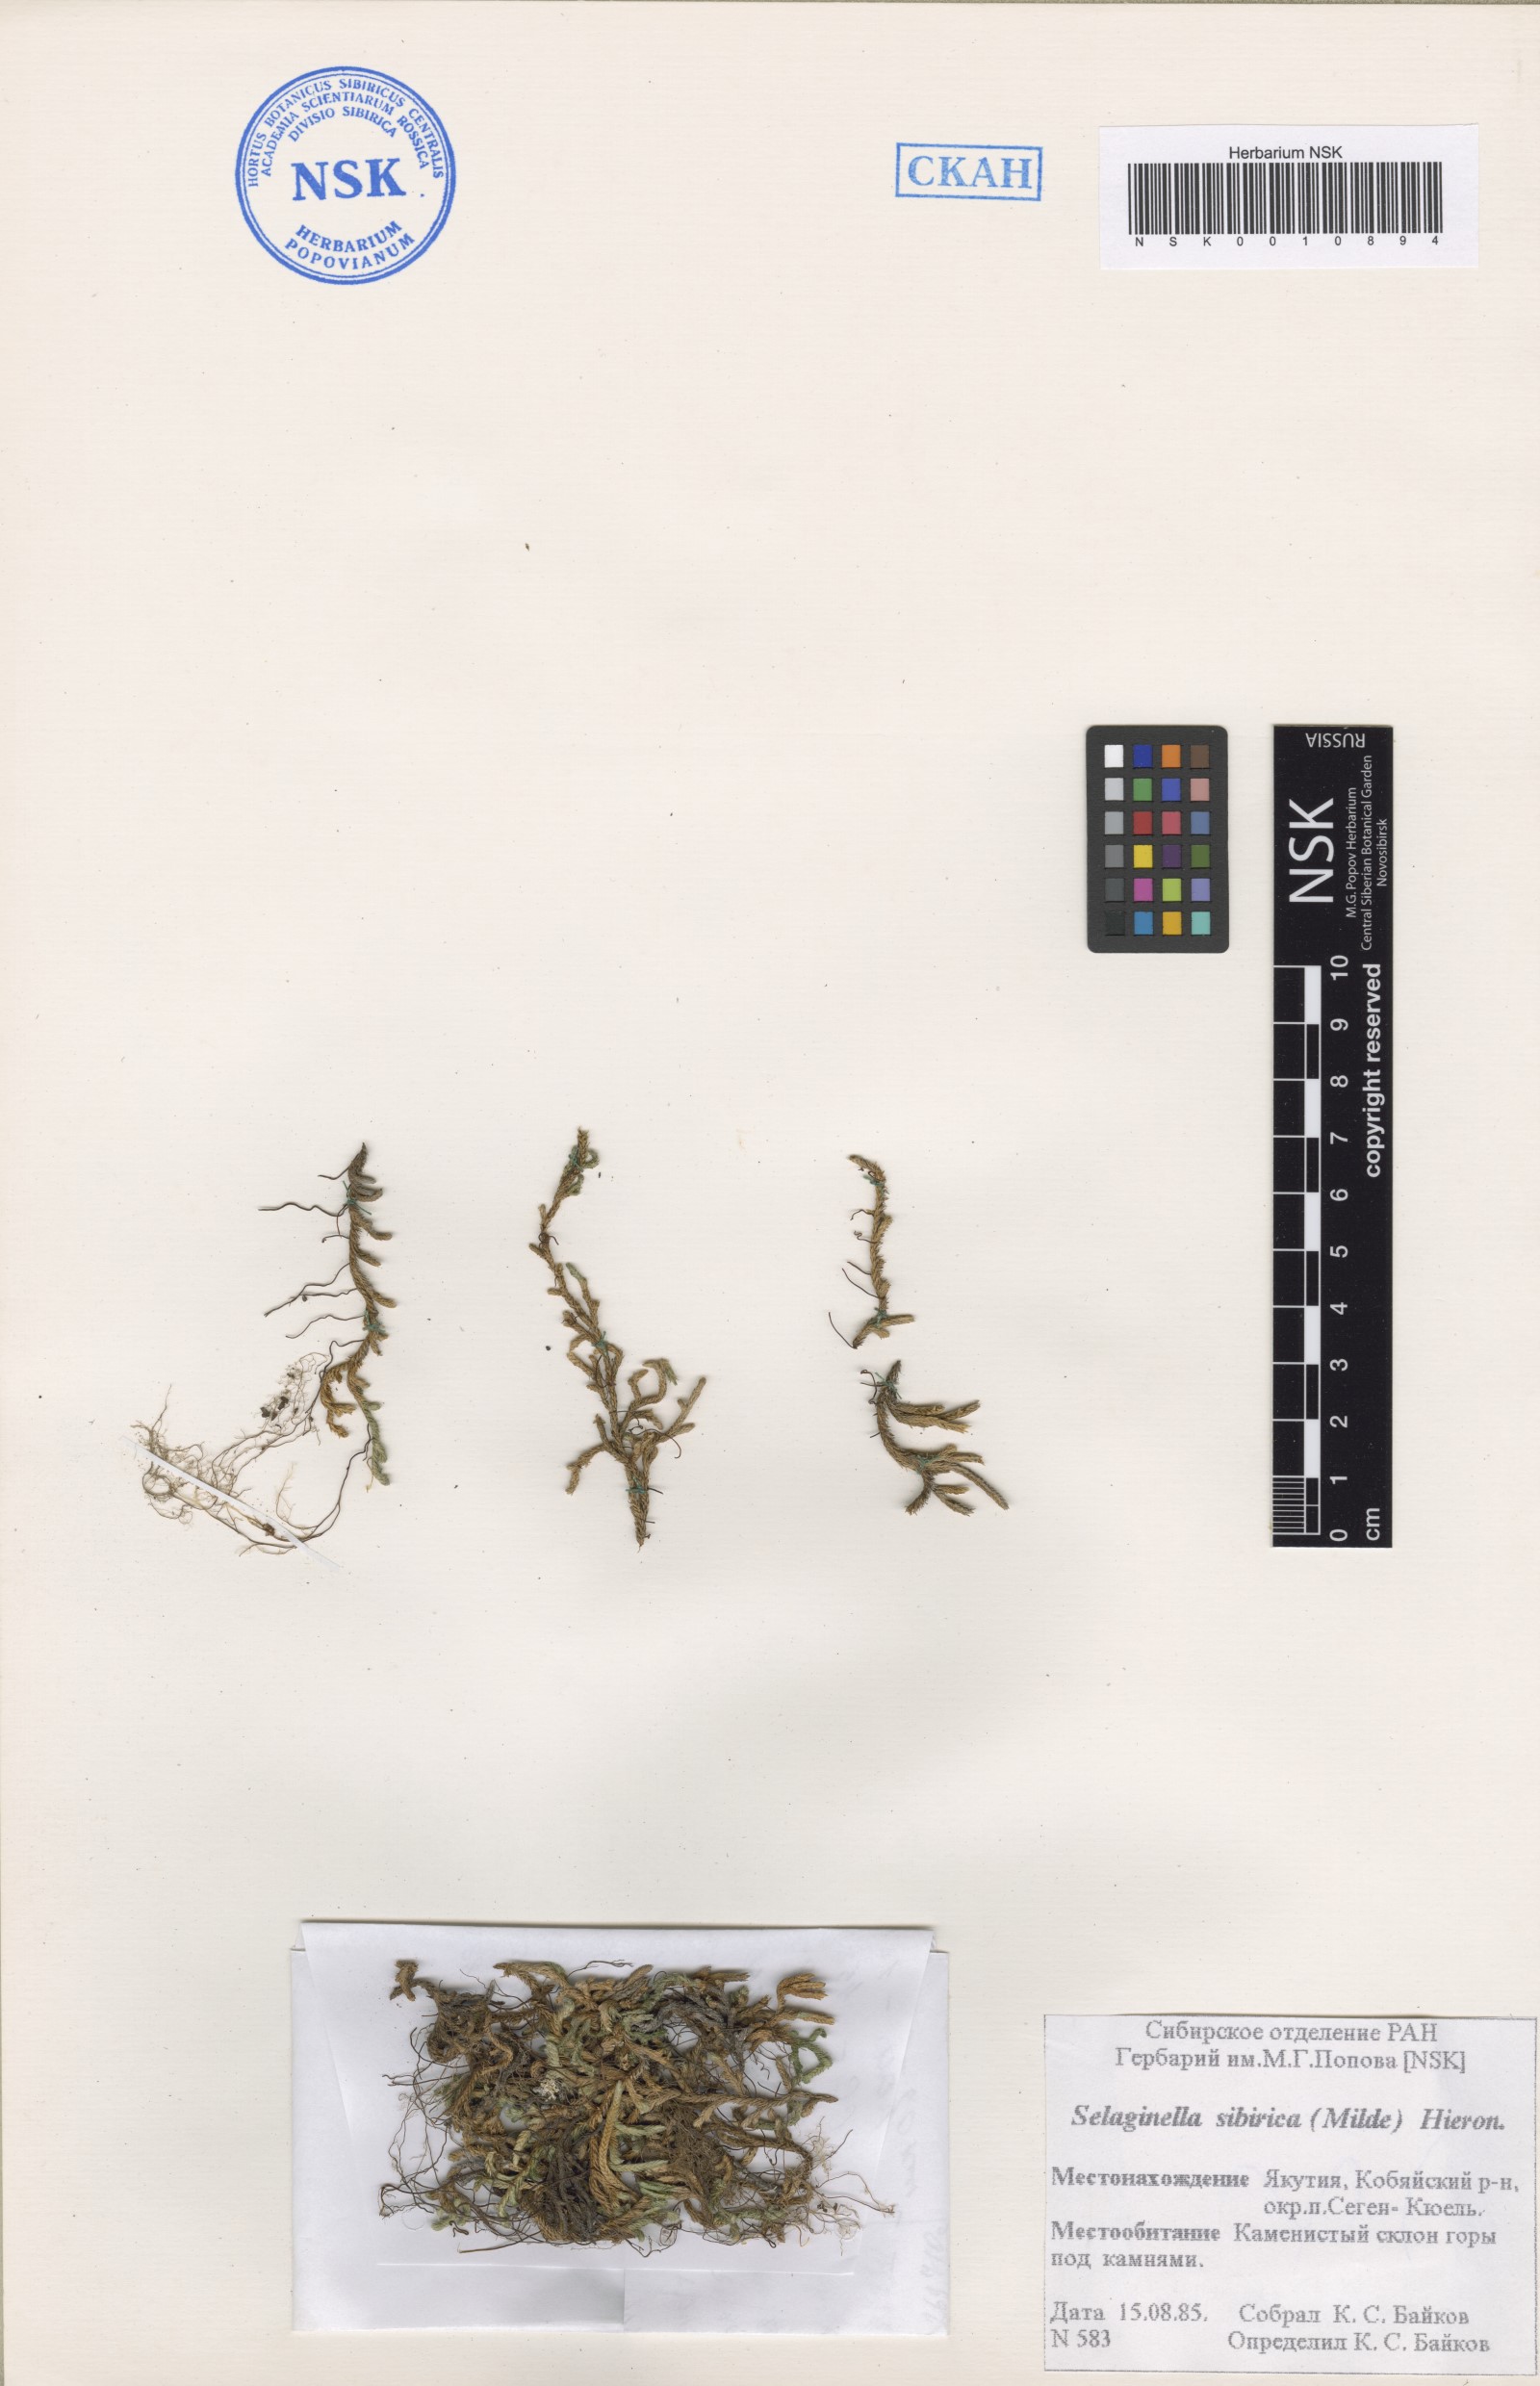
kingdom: Plantae
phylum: Tracheophyta
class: Lycopodiopsida
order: Selaginellales
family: Selaginellaceae
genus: Selaginella
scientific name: Selaginella sibirica
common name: Siberian spikemoss
